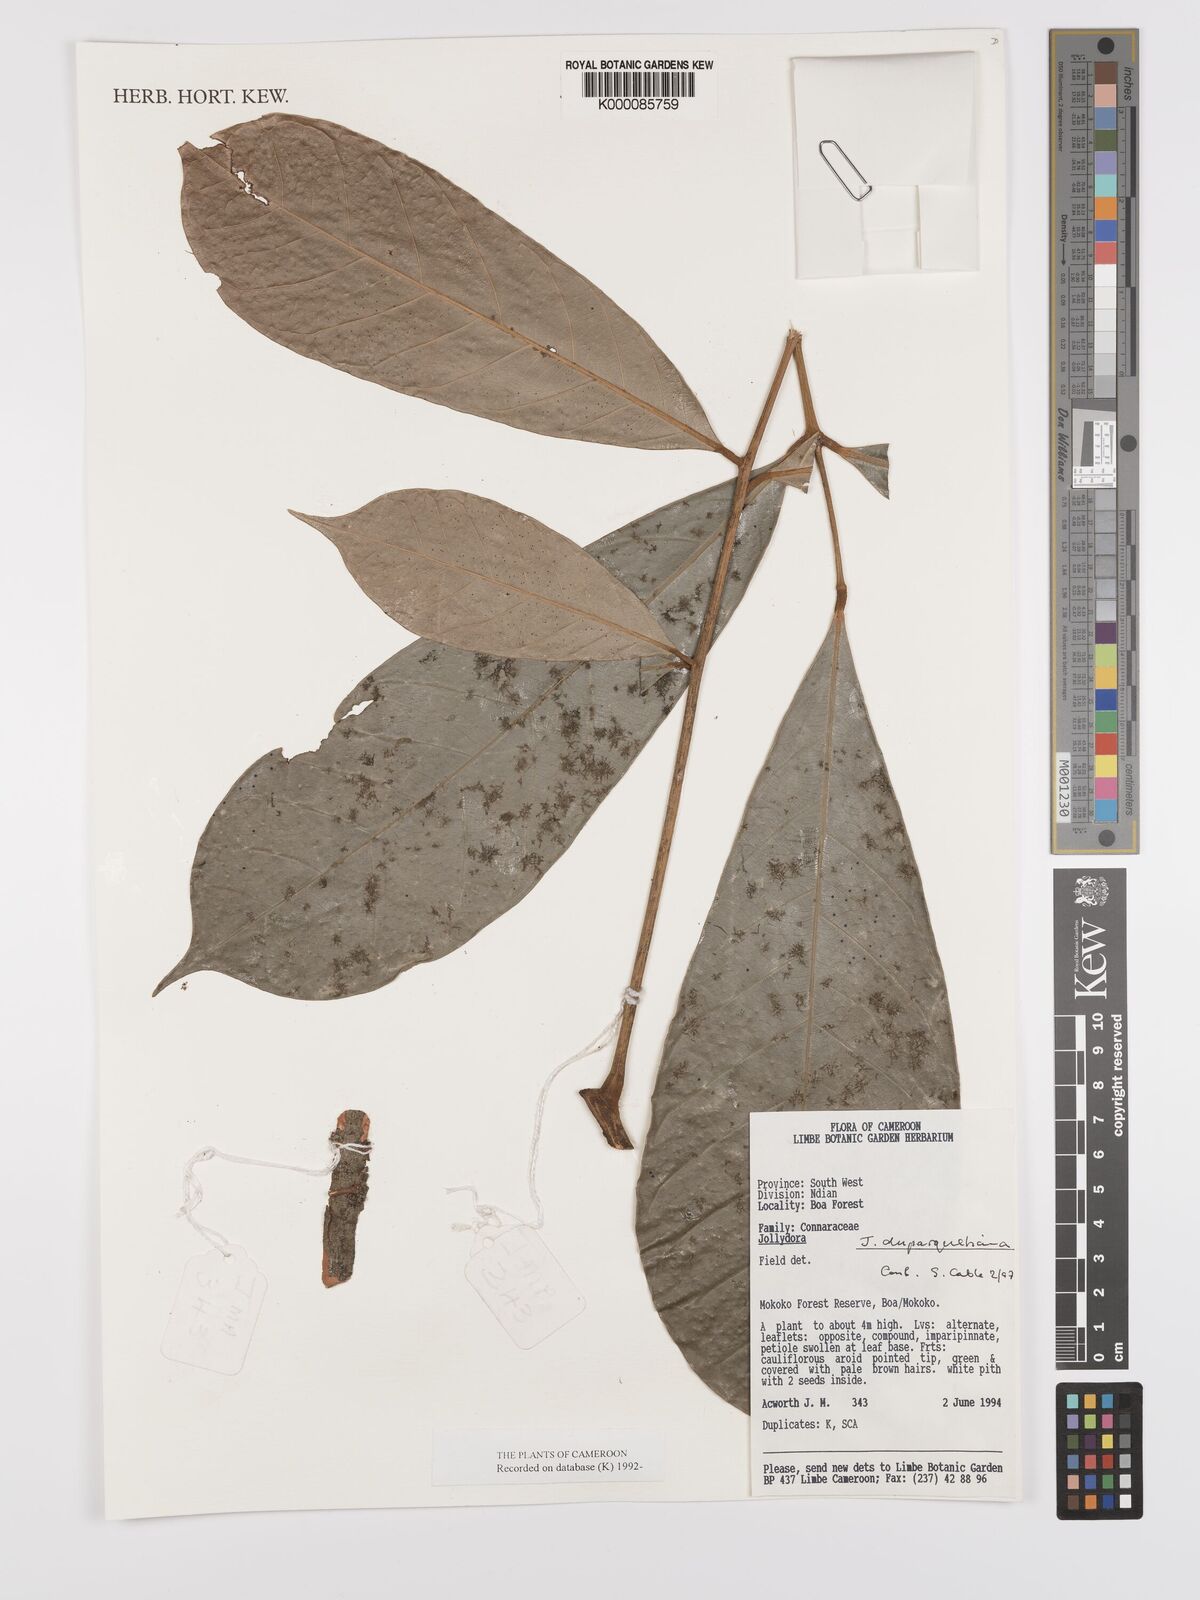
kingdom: Plantae
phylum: Tracheophyta
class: Magnoliopsida
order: Oxalidales
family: Connaraceae
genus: Jollydora
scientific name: Jollydora duparquetiana
